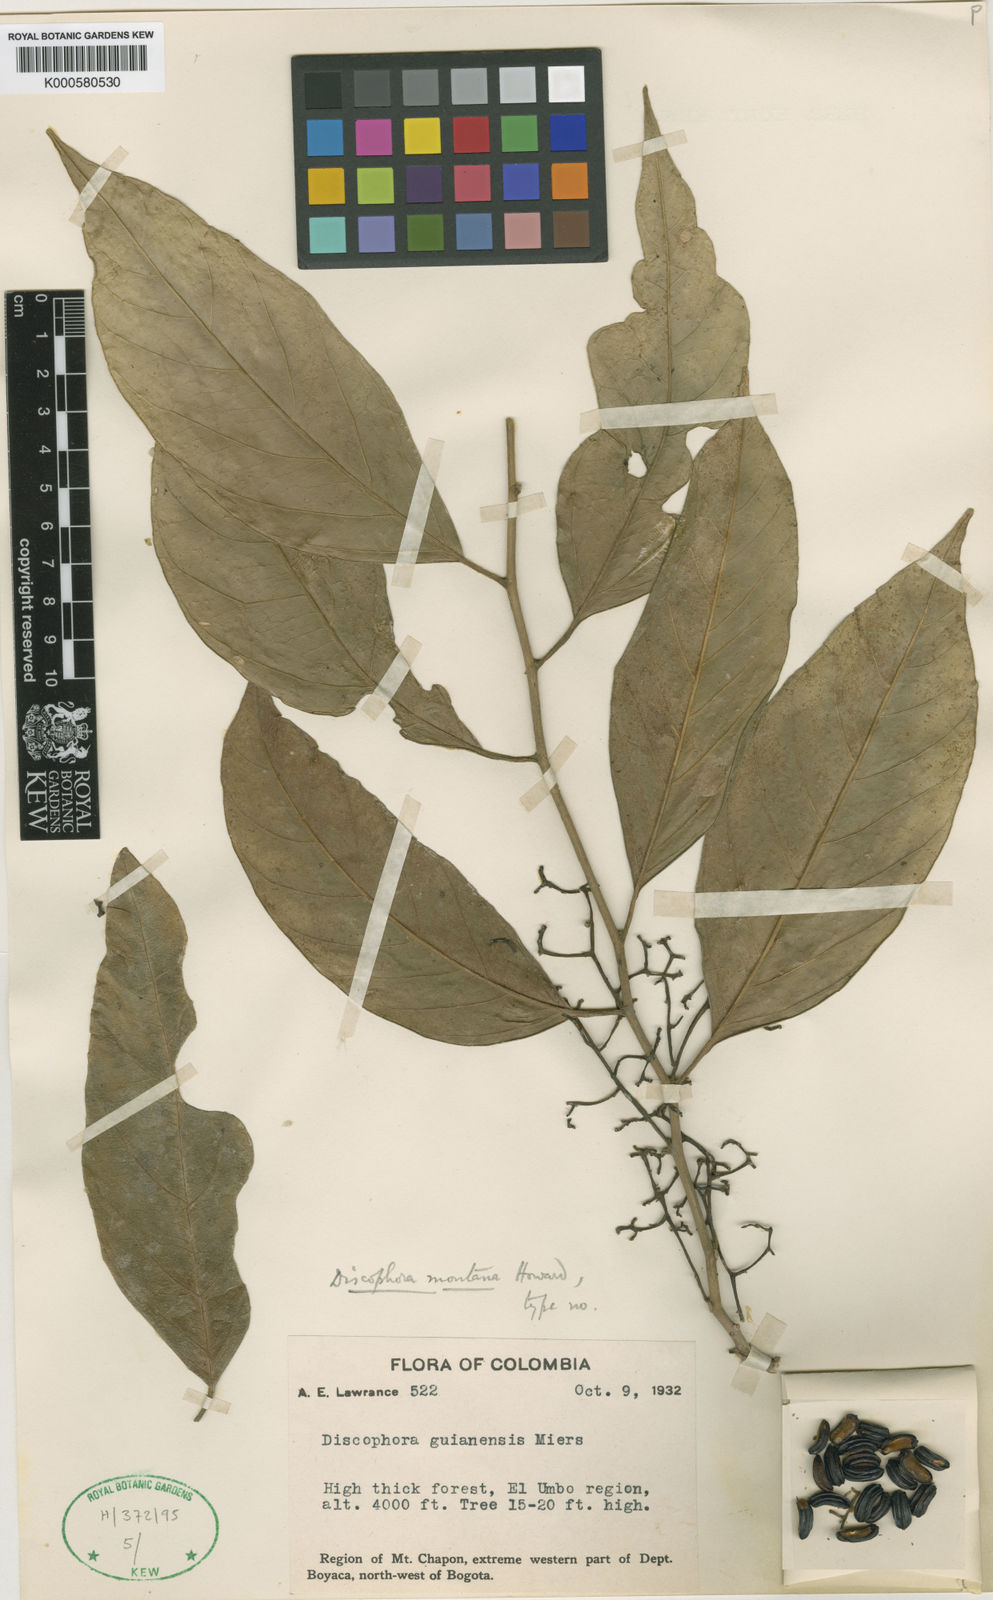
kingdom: Plantae
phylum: Tracheophyta
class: Magnoliopsida
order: Cardiopteridales
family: Stemonuraceae
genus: Discophora
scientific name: Discophora montana
